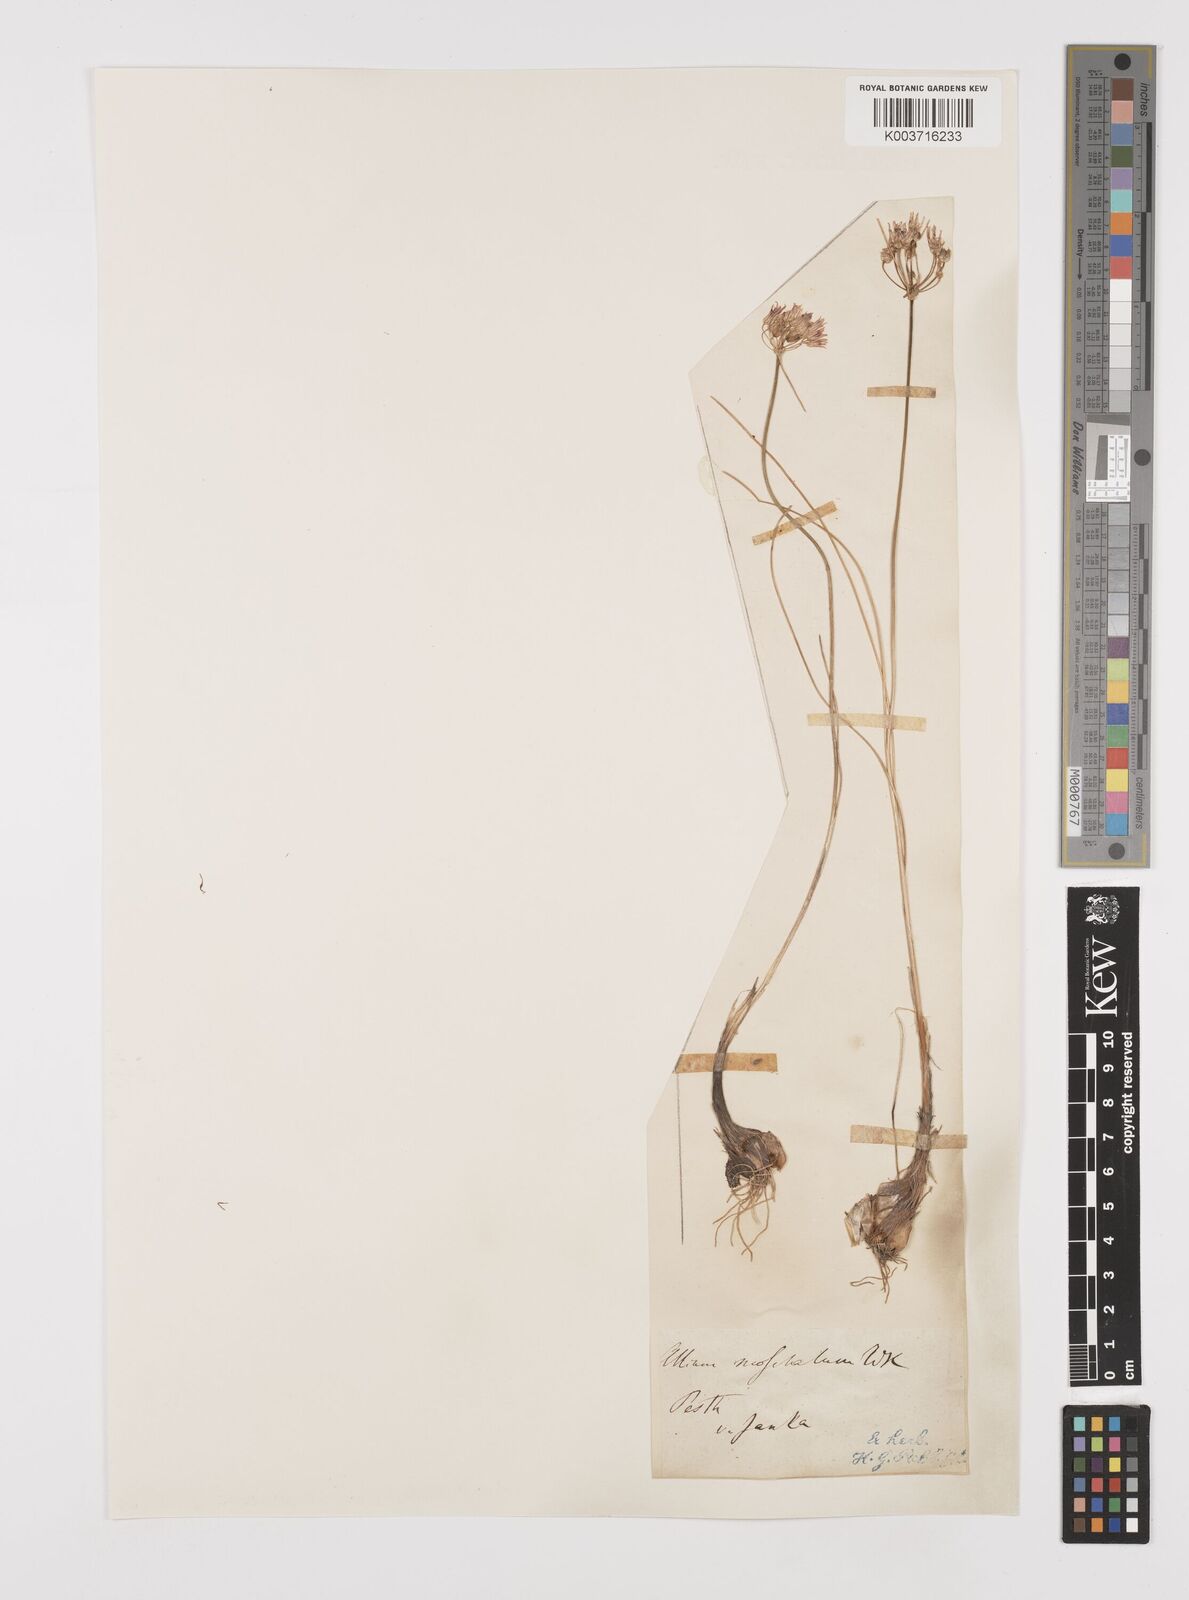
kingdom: Plantae
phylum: Tracheophyta
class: Liliopsida
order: Asparagales
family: Amaryllidaceae
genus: Allium
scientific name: Allium moschatum
